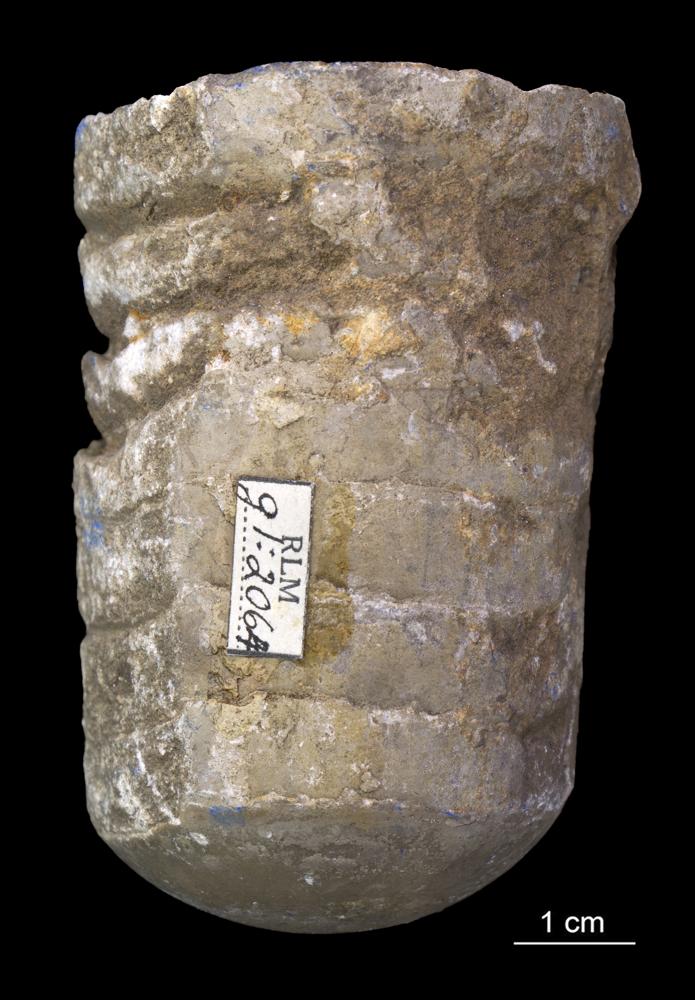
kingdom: Animalia
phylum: Mollusca
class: Cephalopoda
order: Orthocerida
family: Orthoceratidae
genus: Orthoceras
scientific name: Orthoceras
